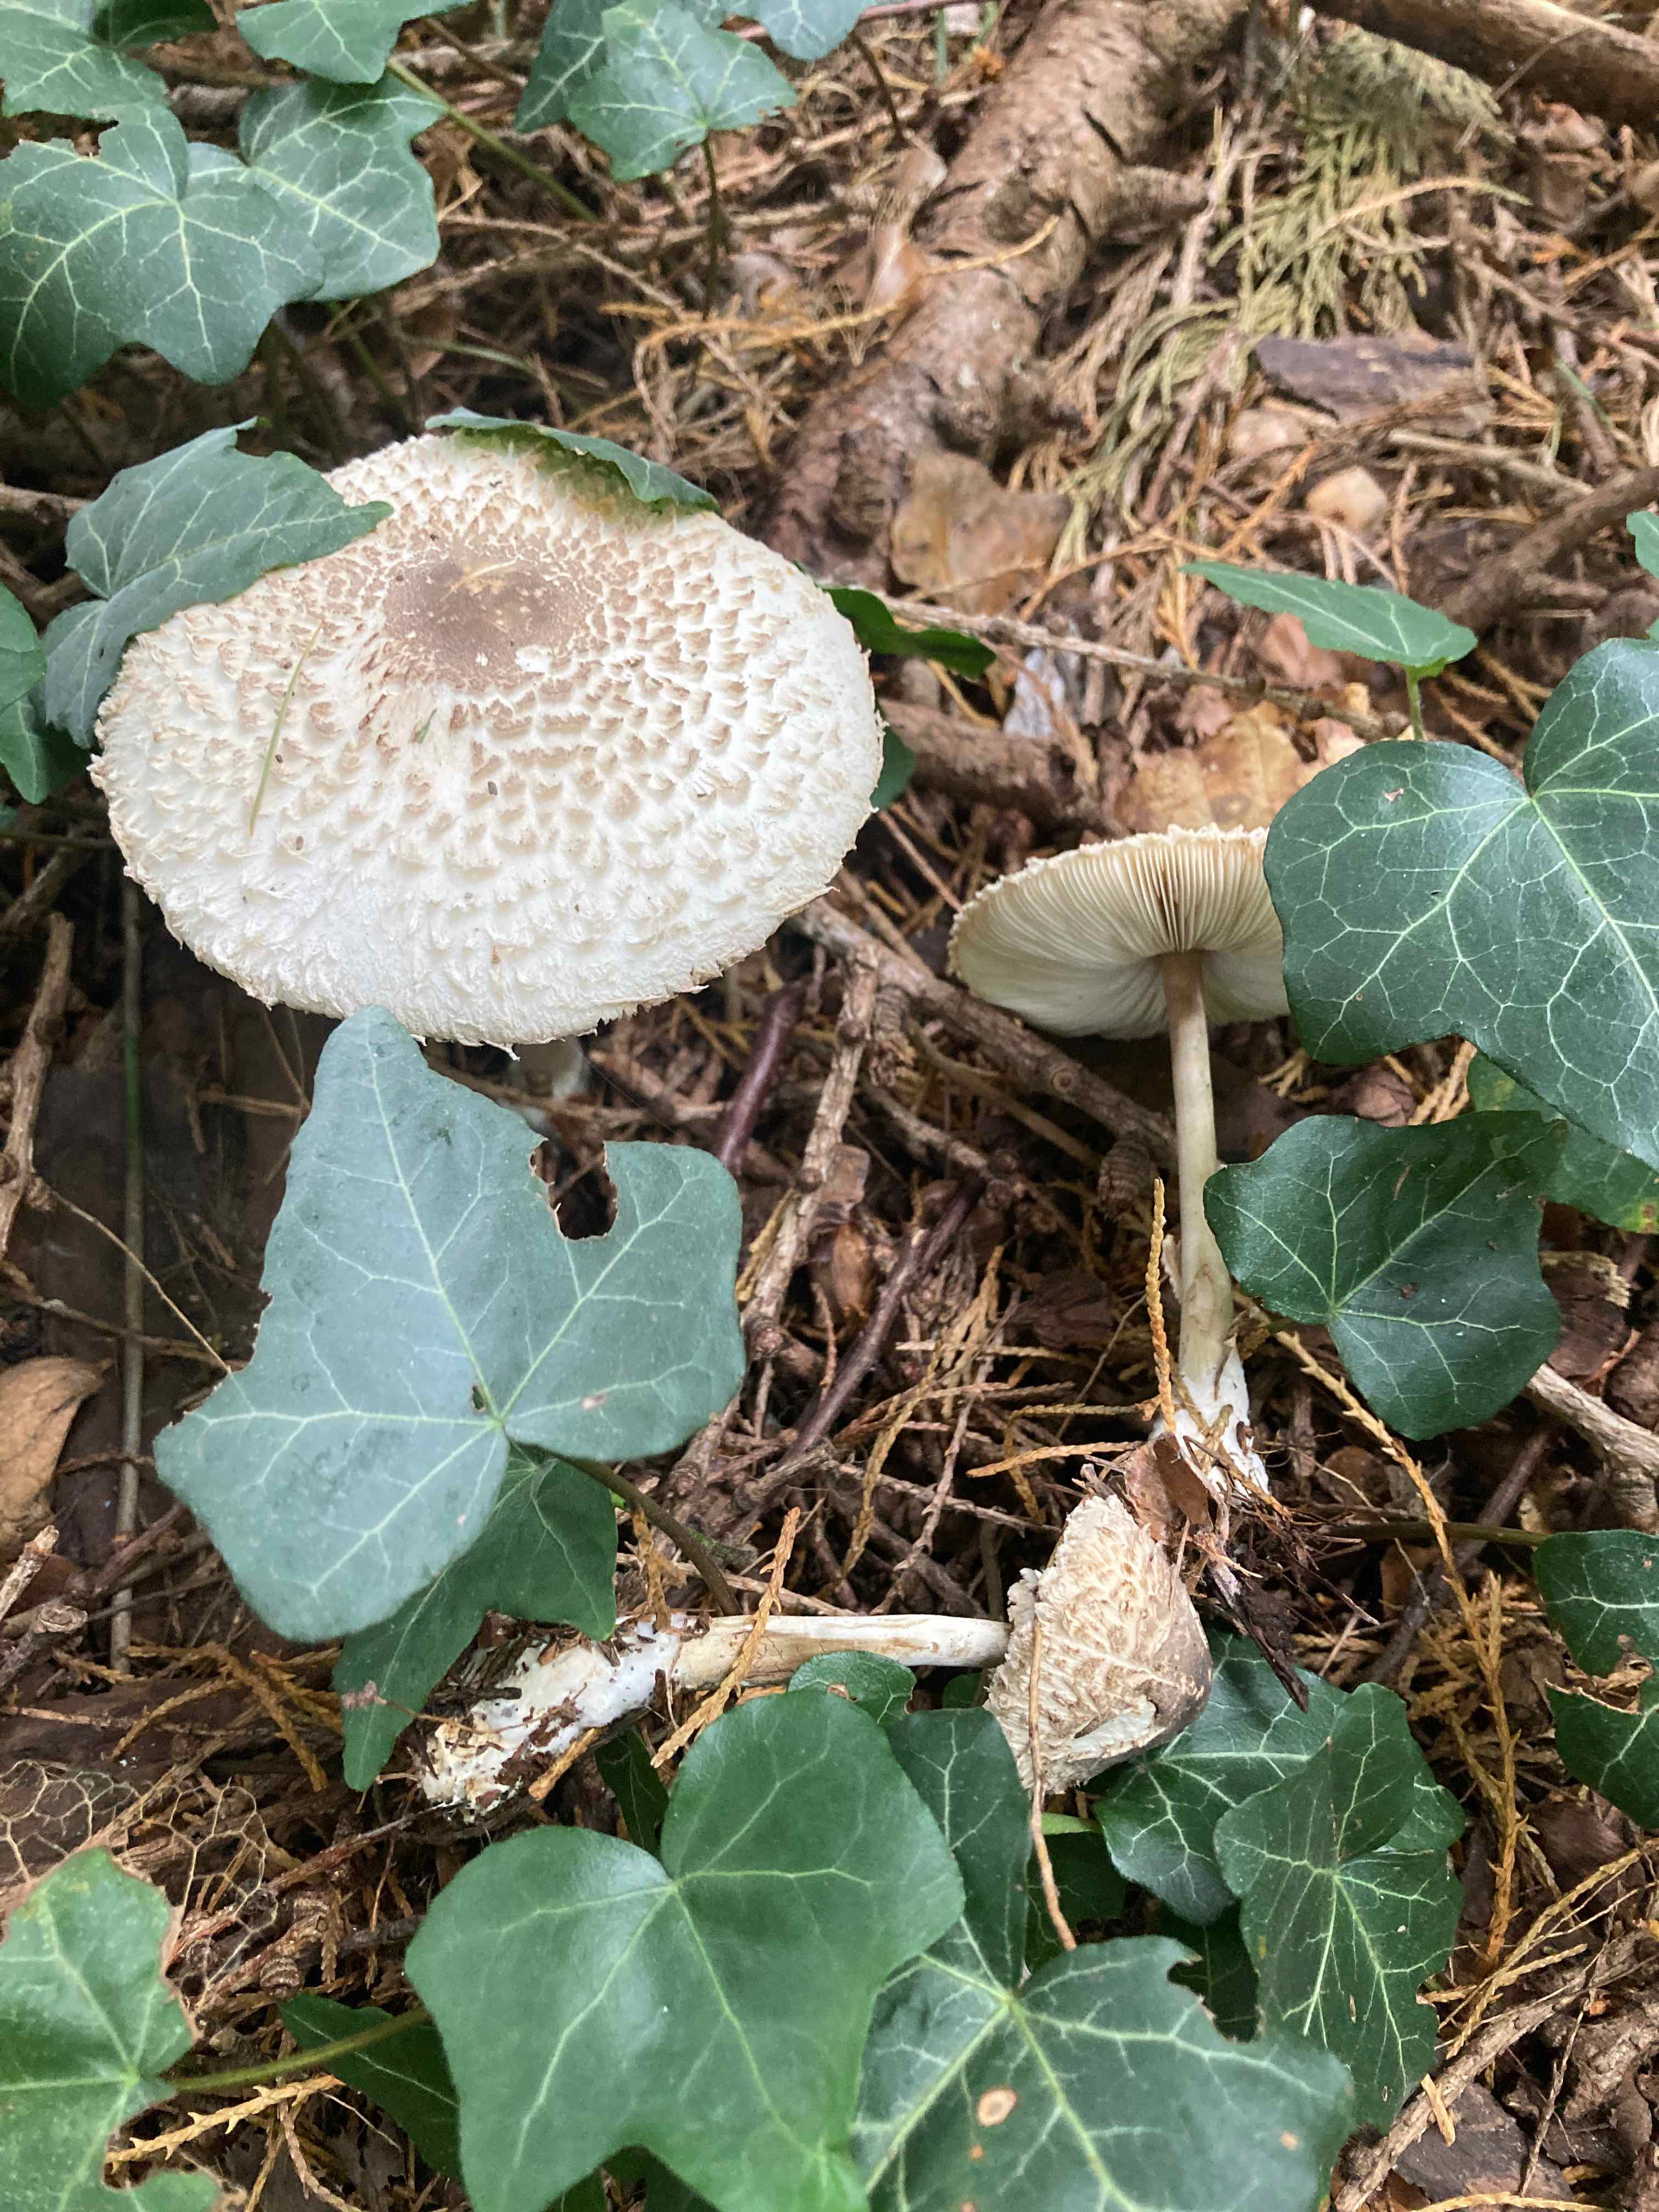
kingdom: Fungi
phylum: Basidiomycota
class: Agaricomycetes
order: Agaricales
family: Agaricaceae
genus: Leucoagaricus
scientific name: Leucoagaricus nympharum
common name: gran-silkehat
